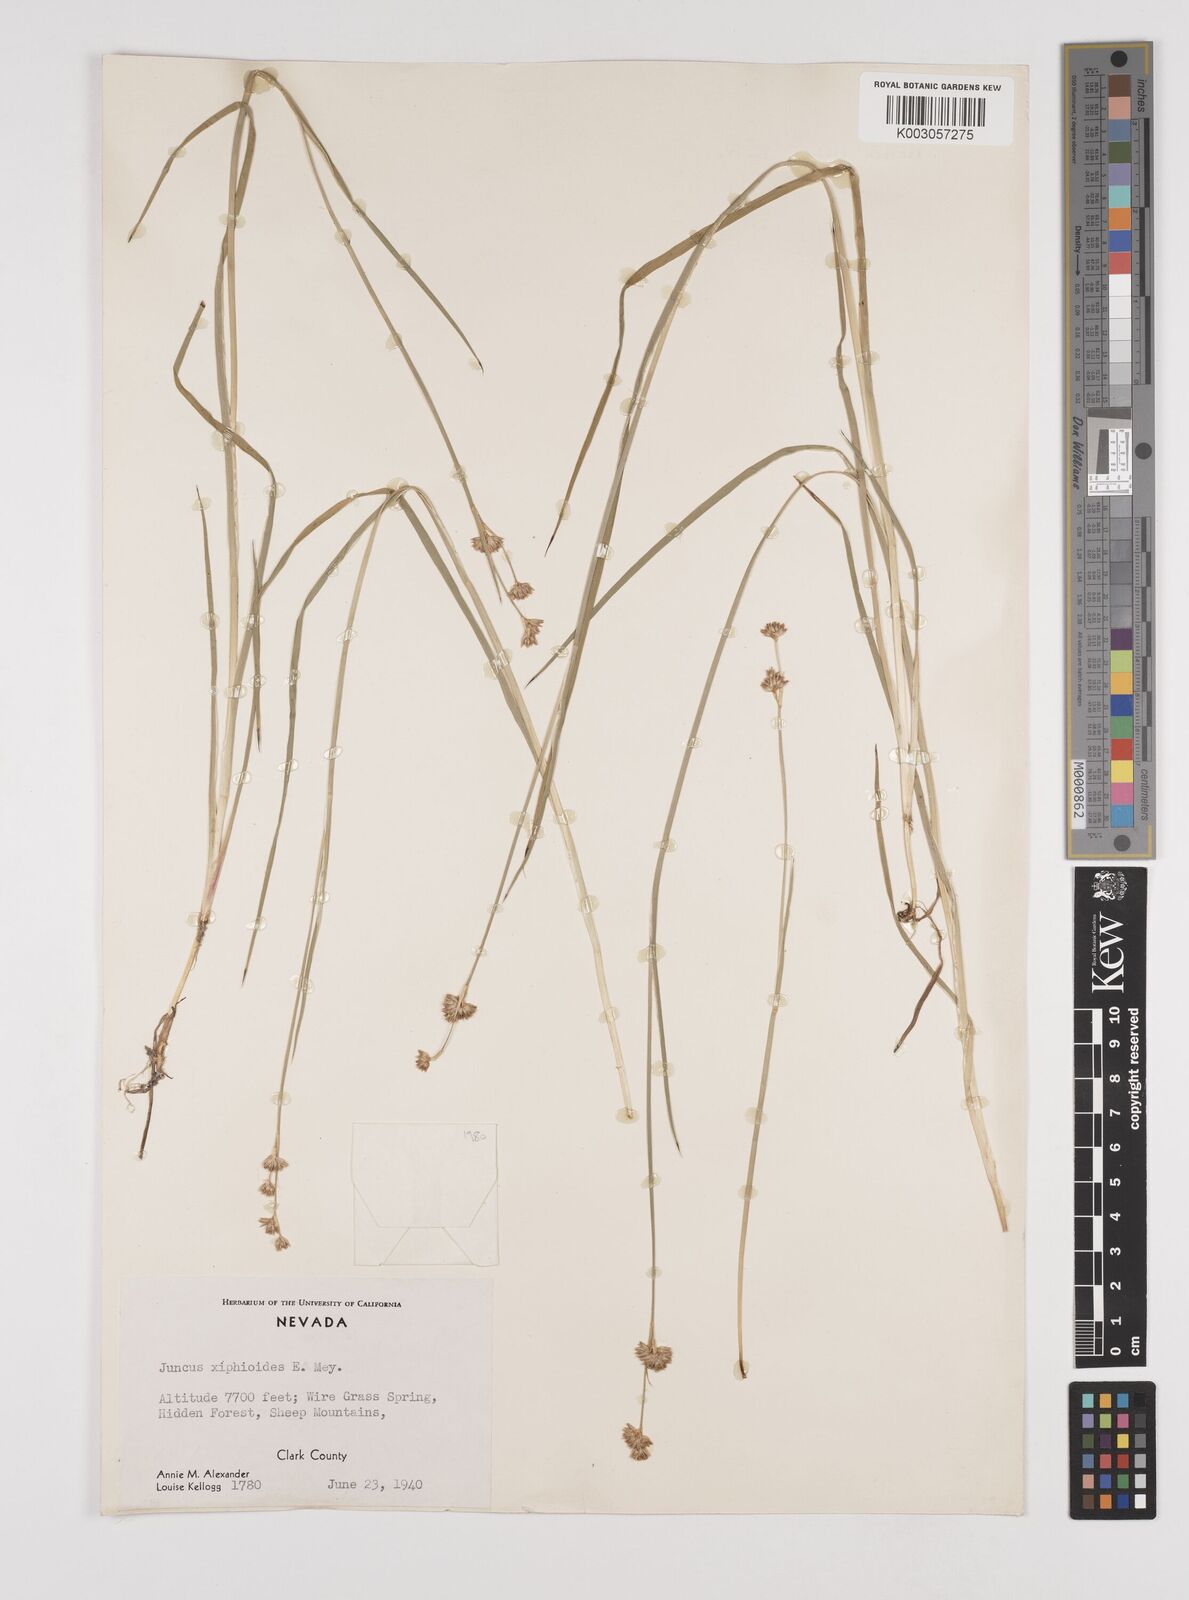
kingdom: Plantae
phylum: Tracheophyta
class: Liliopsida
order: Poales
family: Juncaceae
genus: Juncus
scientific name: Juncus xiphioides
